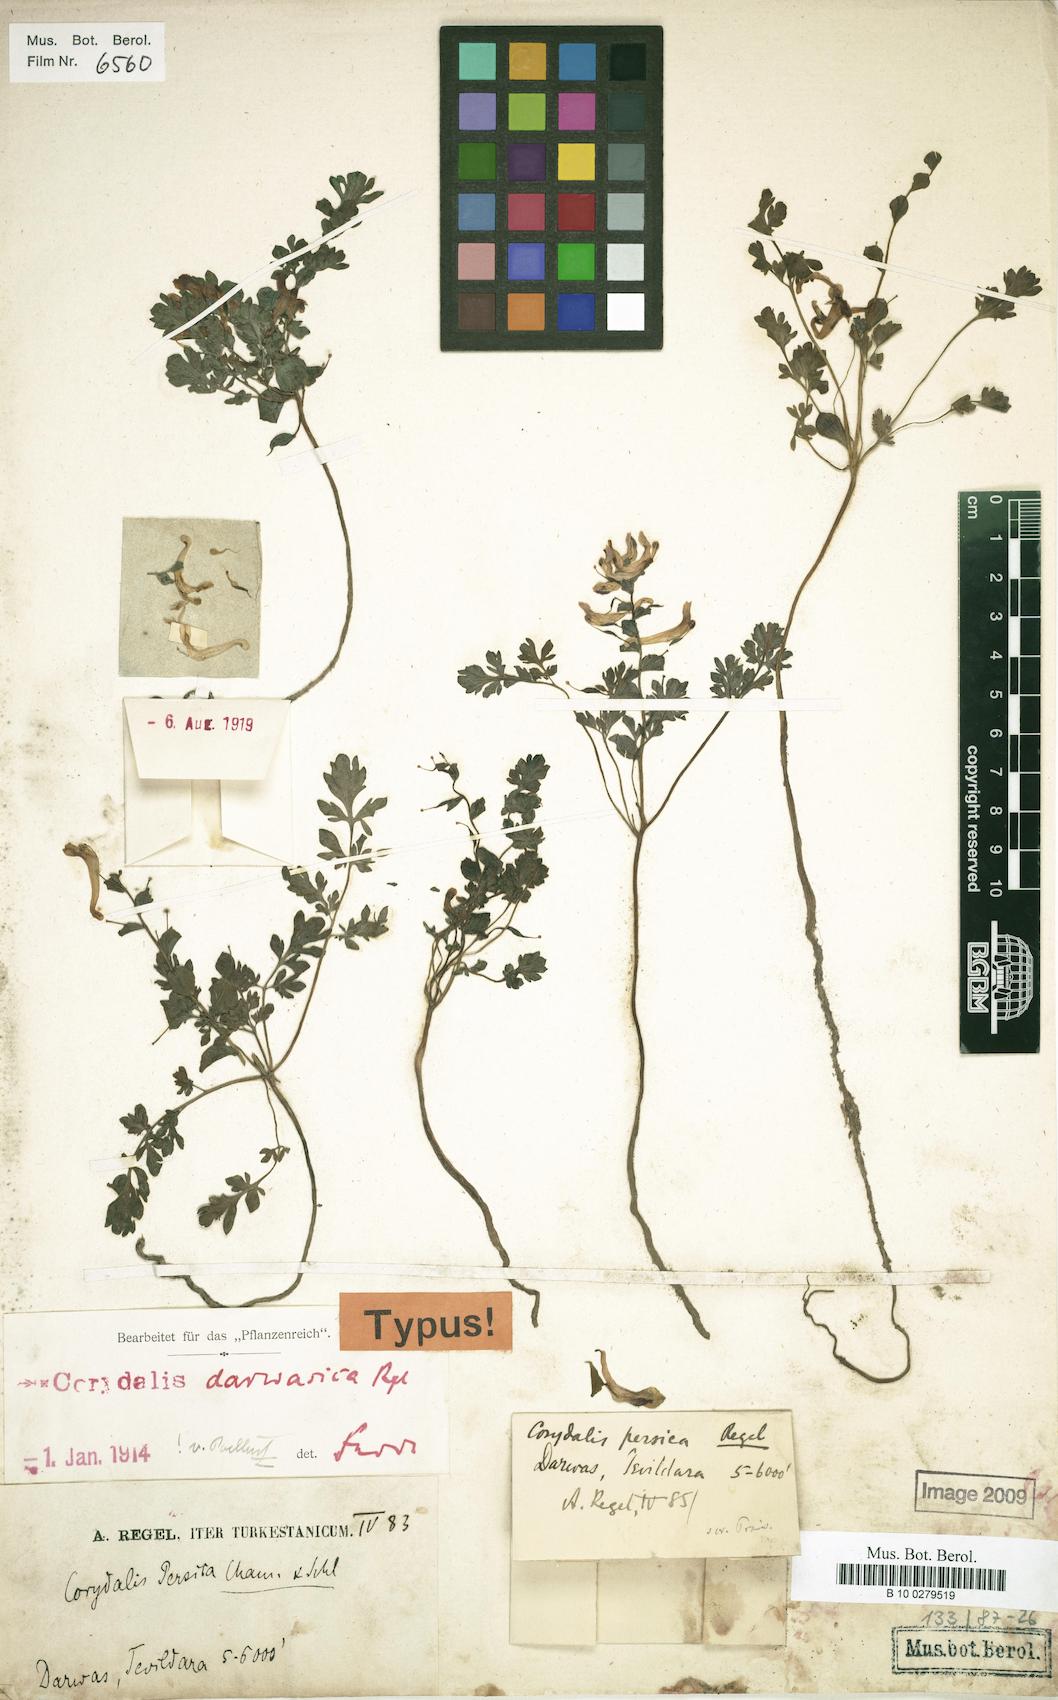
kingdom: Plantae
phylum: Tracheophyta
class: Magnoliopsida
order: Ranunculales
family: Papaveraceae
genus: Corydalis
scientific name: Corydalis darwasica
